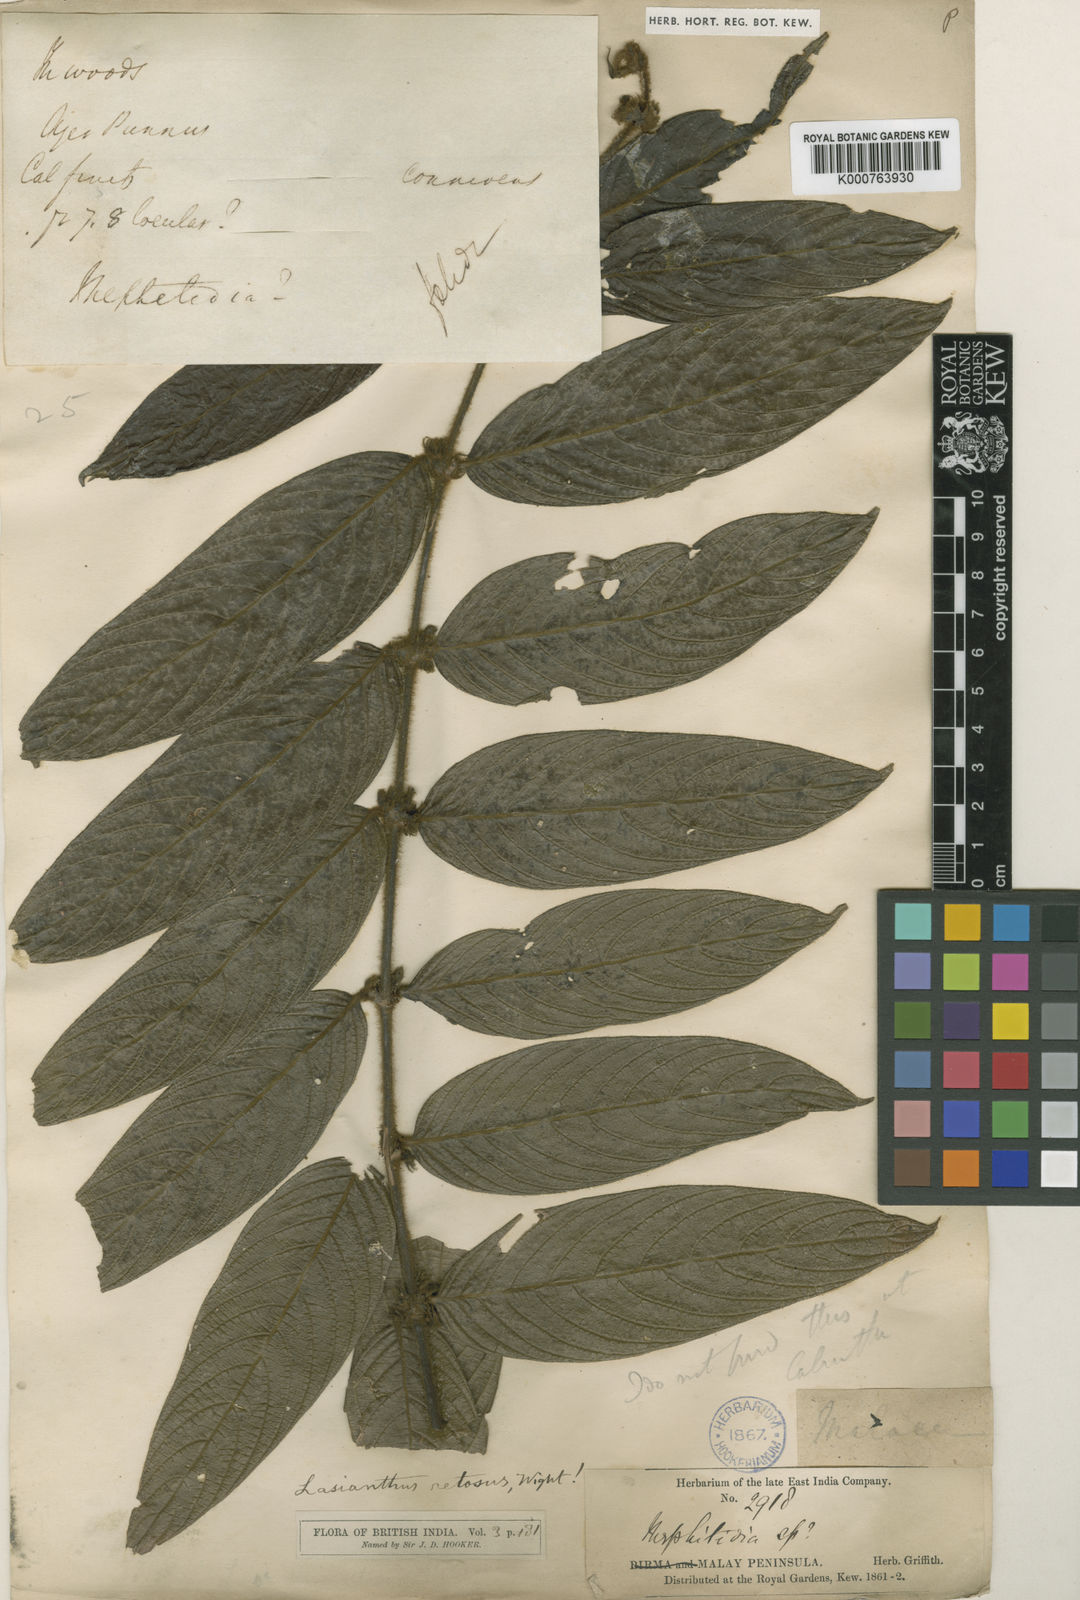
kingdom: Plantae
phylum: Tracheophyta
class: Magnoliopsida
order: Gentianales
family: Rubiaceae
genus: Lasianthus
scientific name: Lasianthus pilosus
